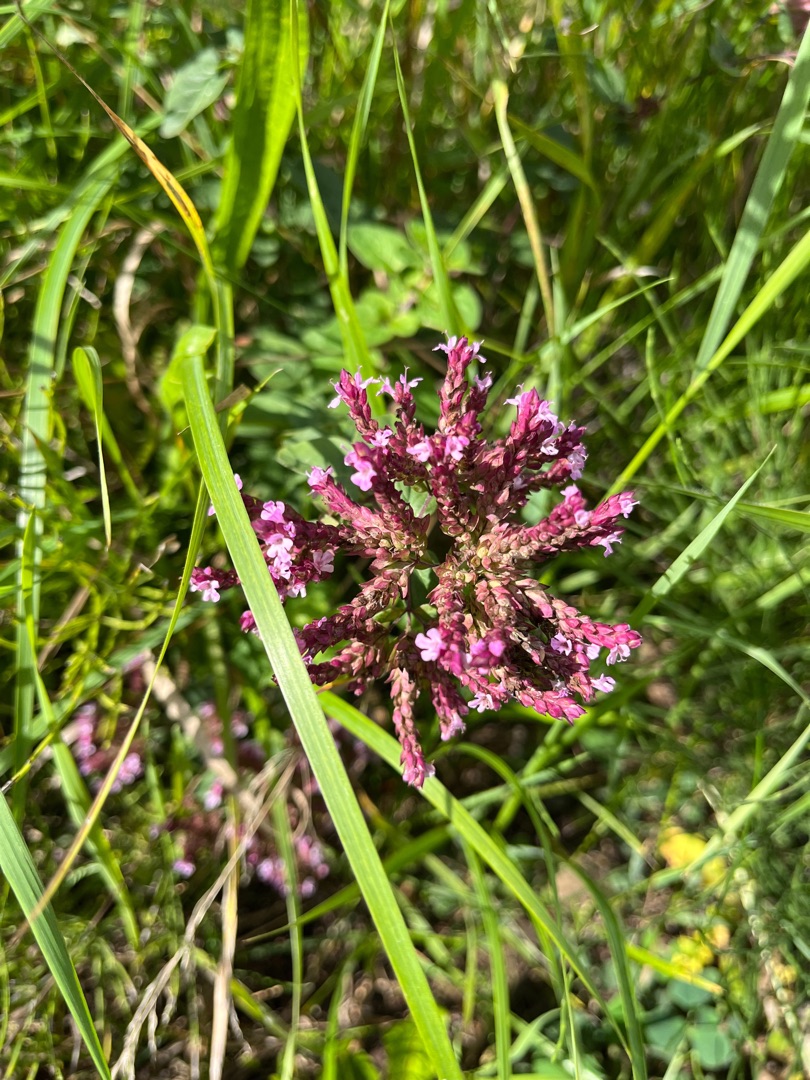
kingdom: Plantae
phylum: Tracheophyta
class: Magnoliopsida
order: Lamiales
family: Verbenaceae
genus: Verbena
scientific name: Verbena hastata
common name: Blå jernurt
